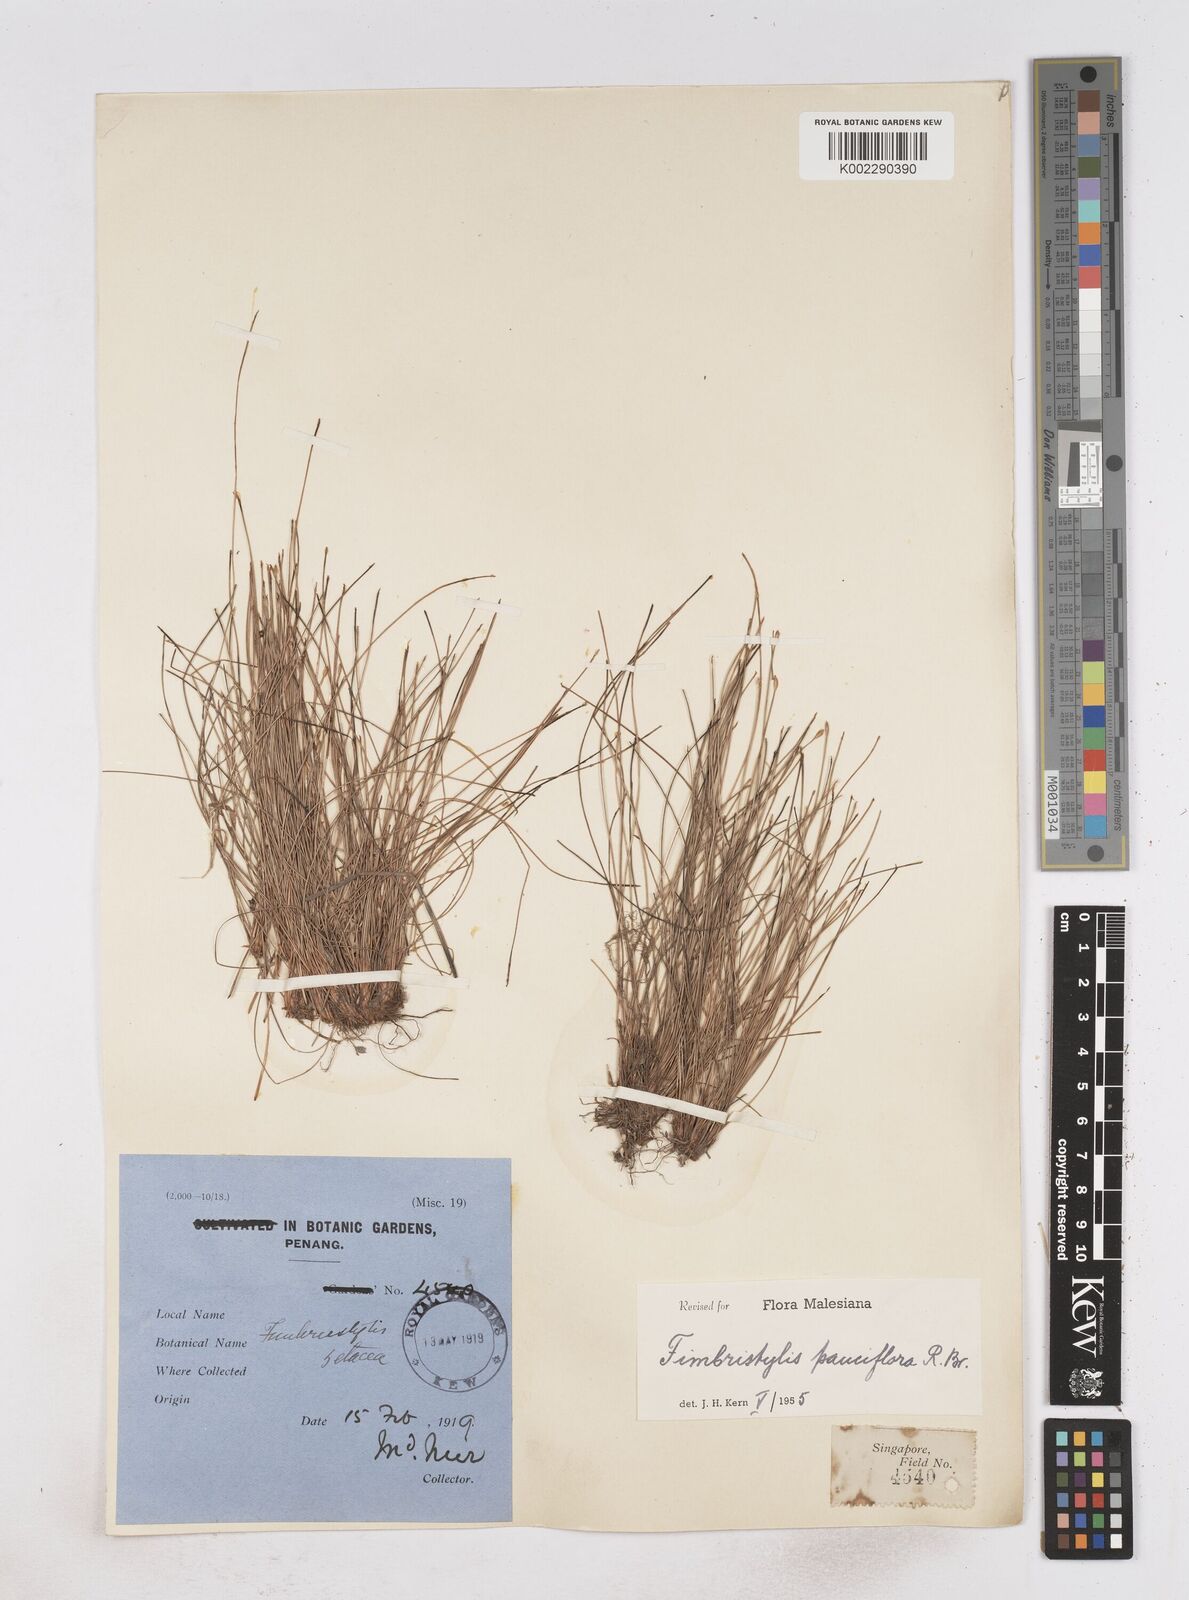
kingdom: Plantae
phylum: Tracheophyta
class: Liliopsida
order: Poales
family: Cyperaceae
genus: Fimbristylis
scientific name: Fimbristylis pauciflora
